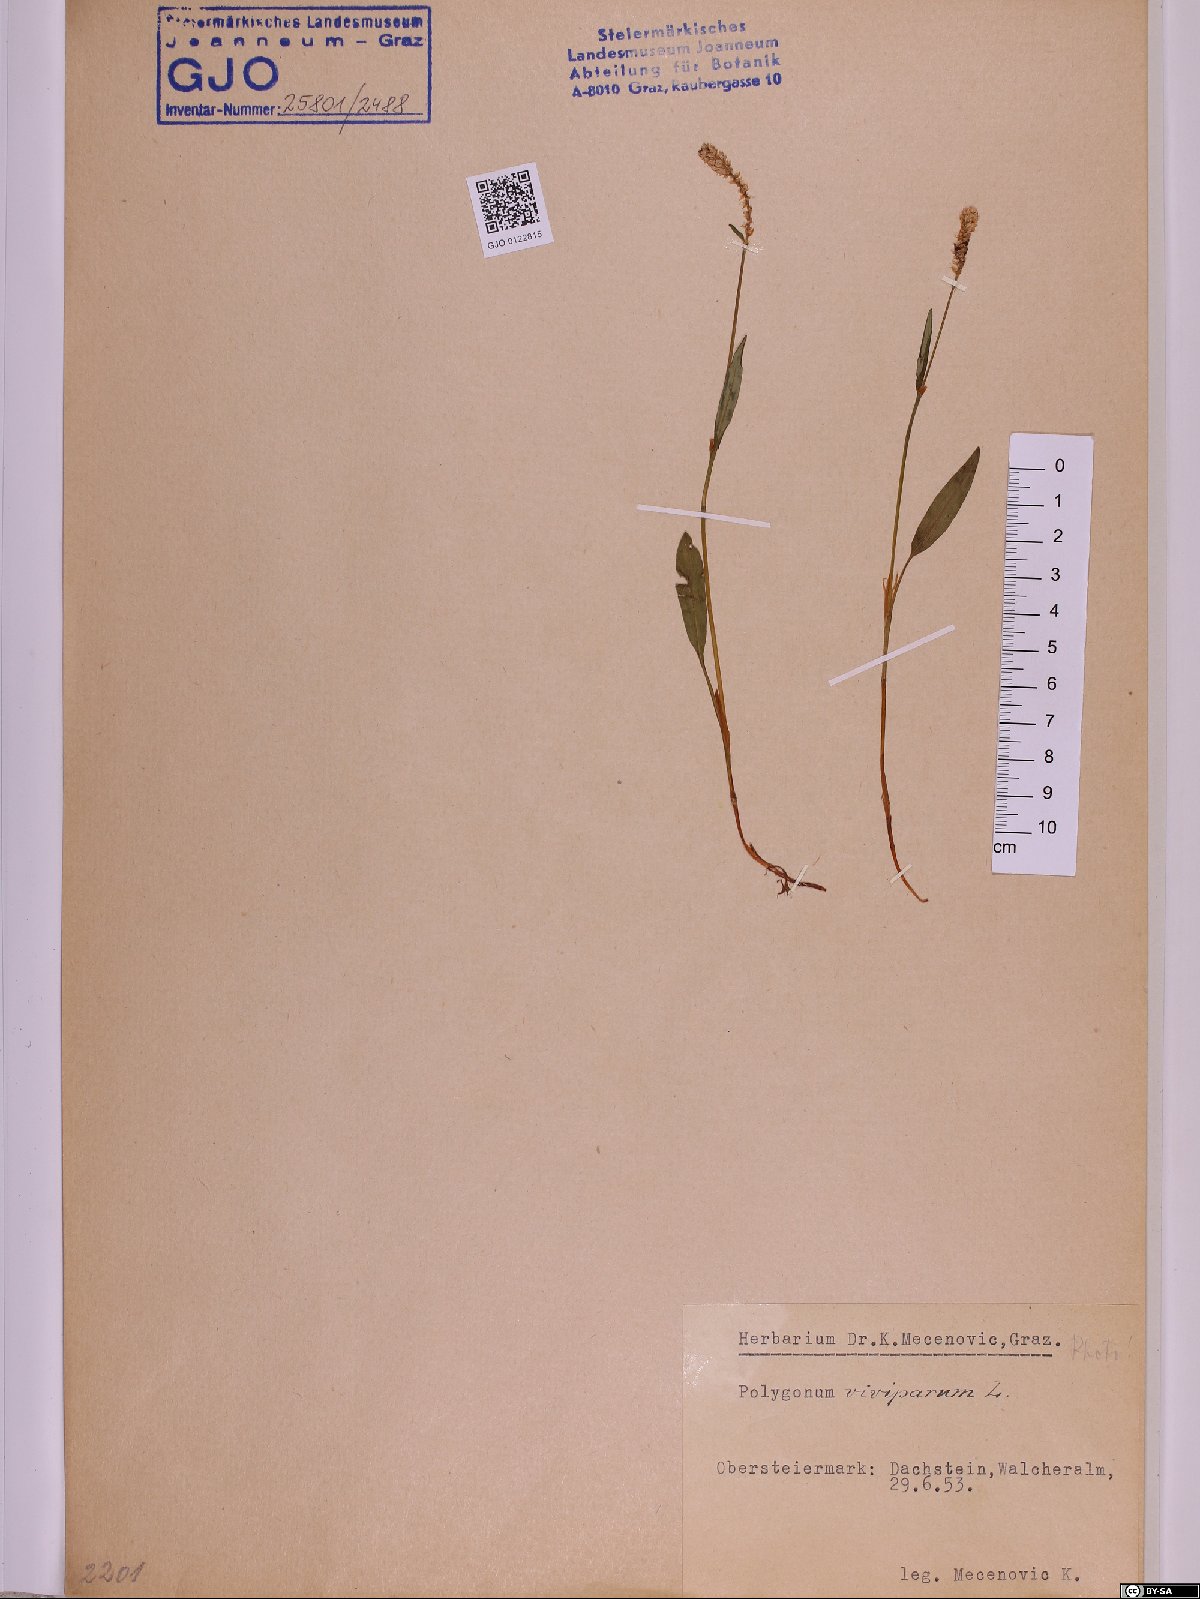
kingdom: Plantae
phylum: Tracheophyta
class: Magnoliopsida
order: Caryophyllales
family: Polygonaceae
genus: Bistorta
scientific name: Bistorta vivipara
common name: Alpine bistort
